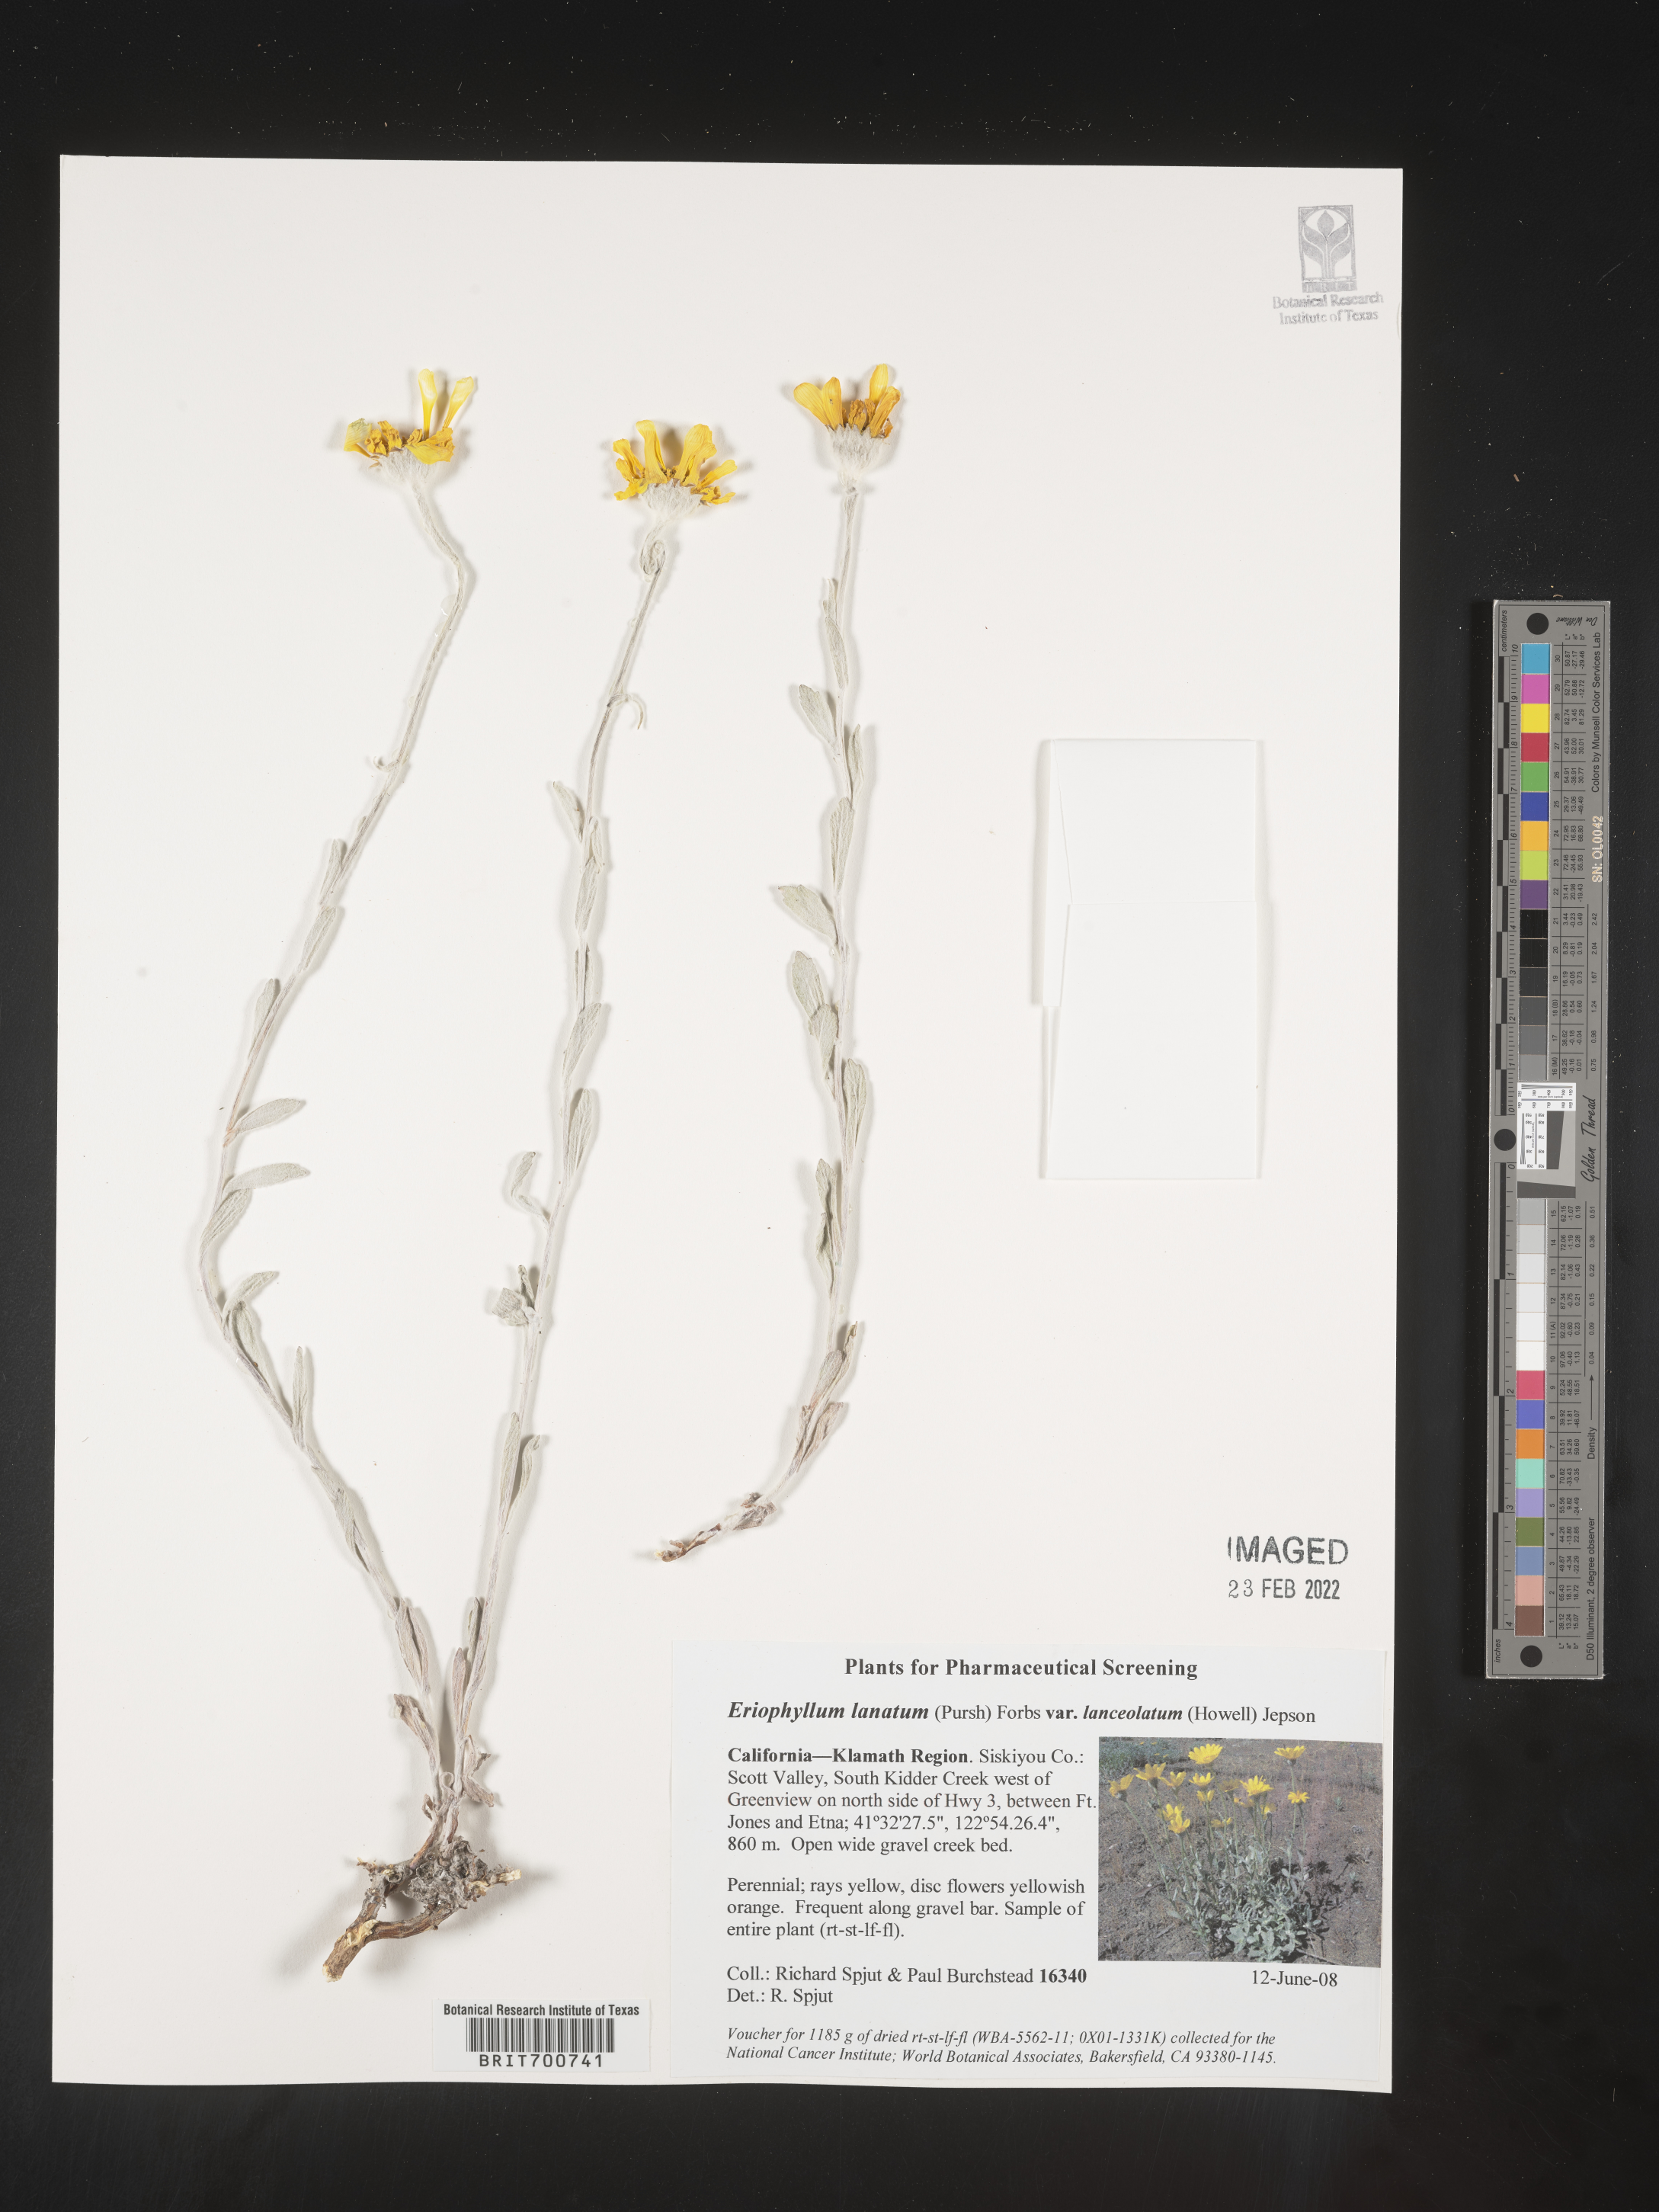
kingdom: Plantae
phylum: Tracheophyta
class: Magnoliopsida
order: Asterales
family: Asteraceae
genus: Eriophyllum
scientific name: Eriophyllum lanatum
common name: Common woolly-sunflower
